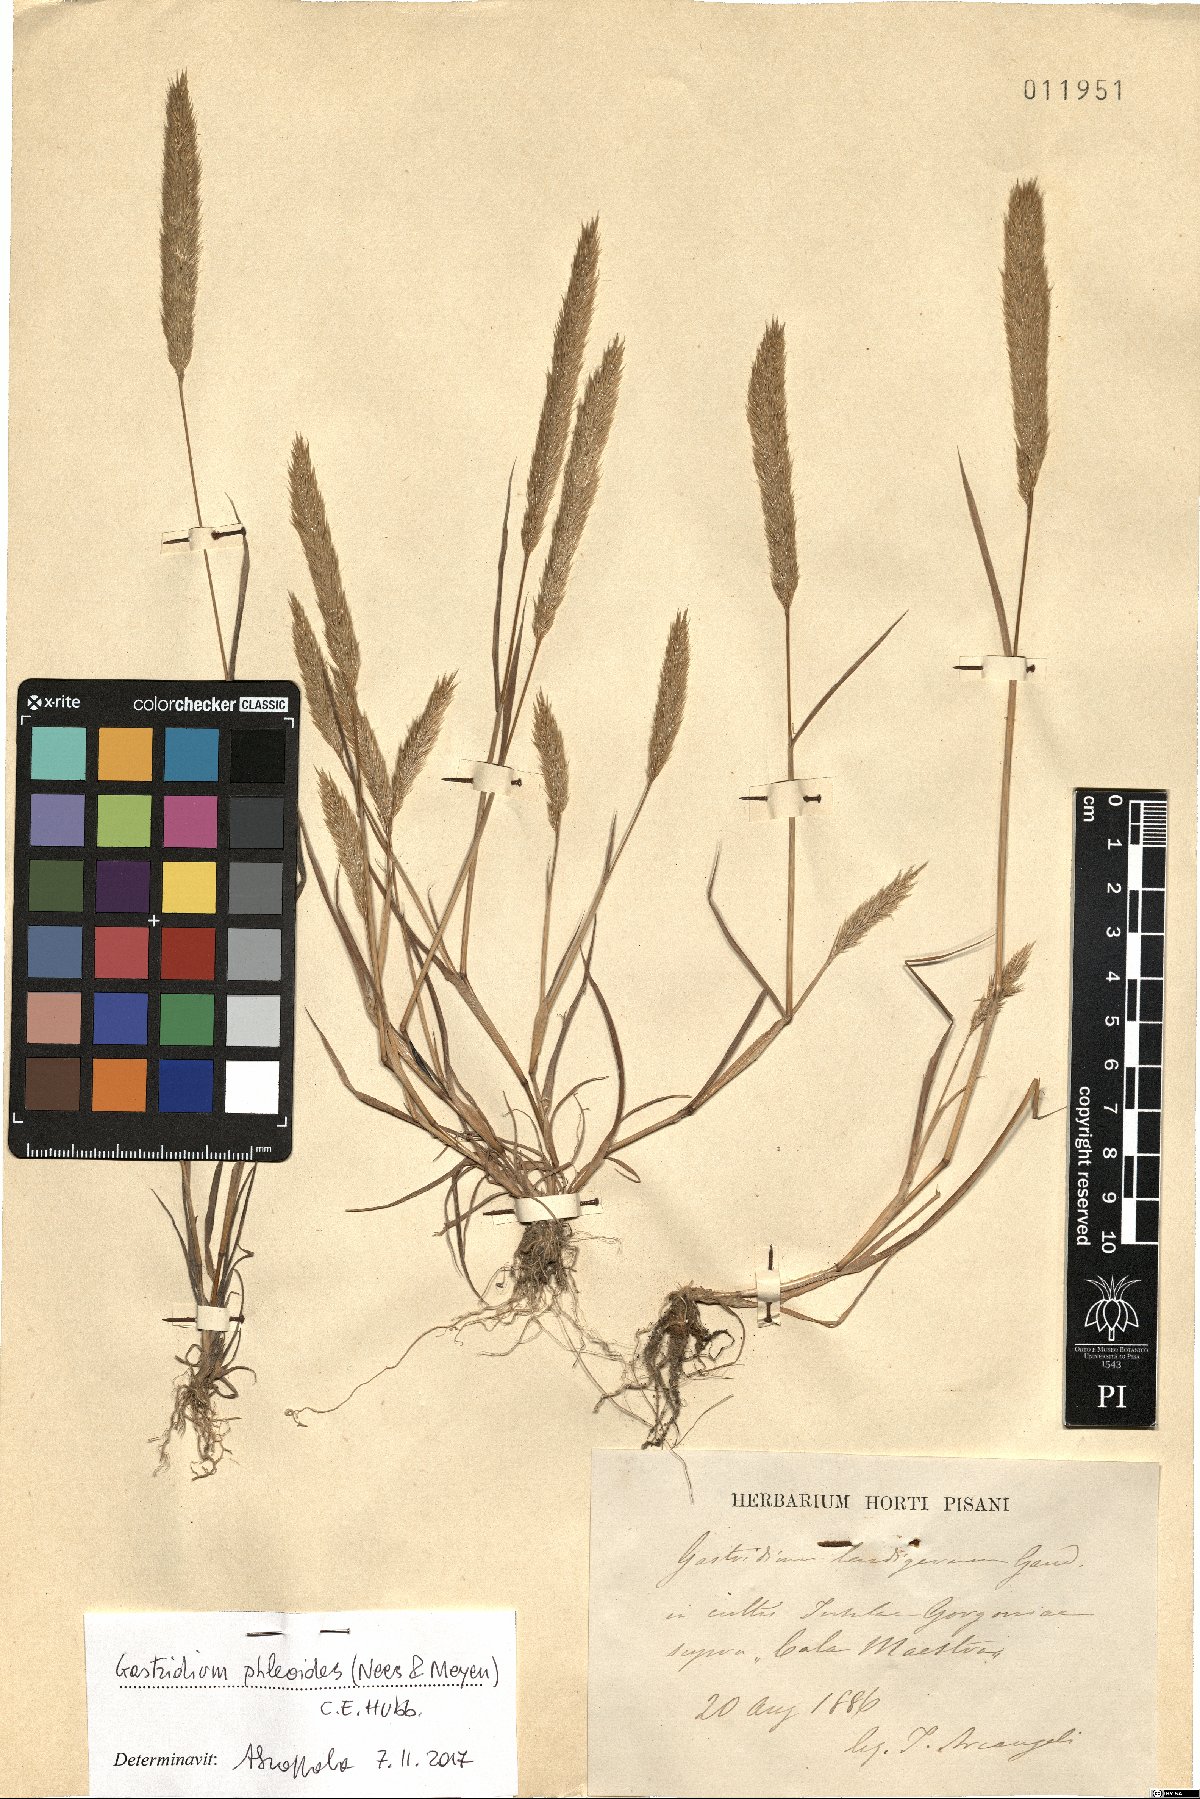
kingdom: Plantae
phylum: Tracheophyta
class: Liliopsida
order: Poales
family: Poaceae
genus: Gastridium
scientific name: Gastridium phleoides
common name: Nit grass
